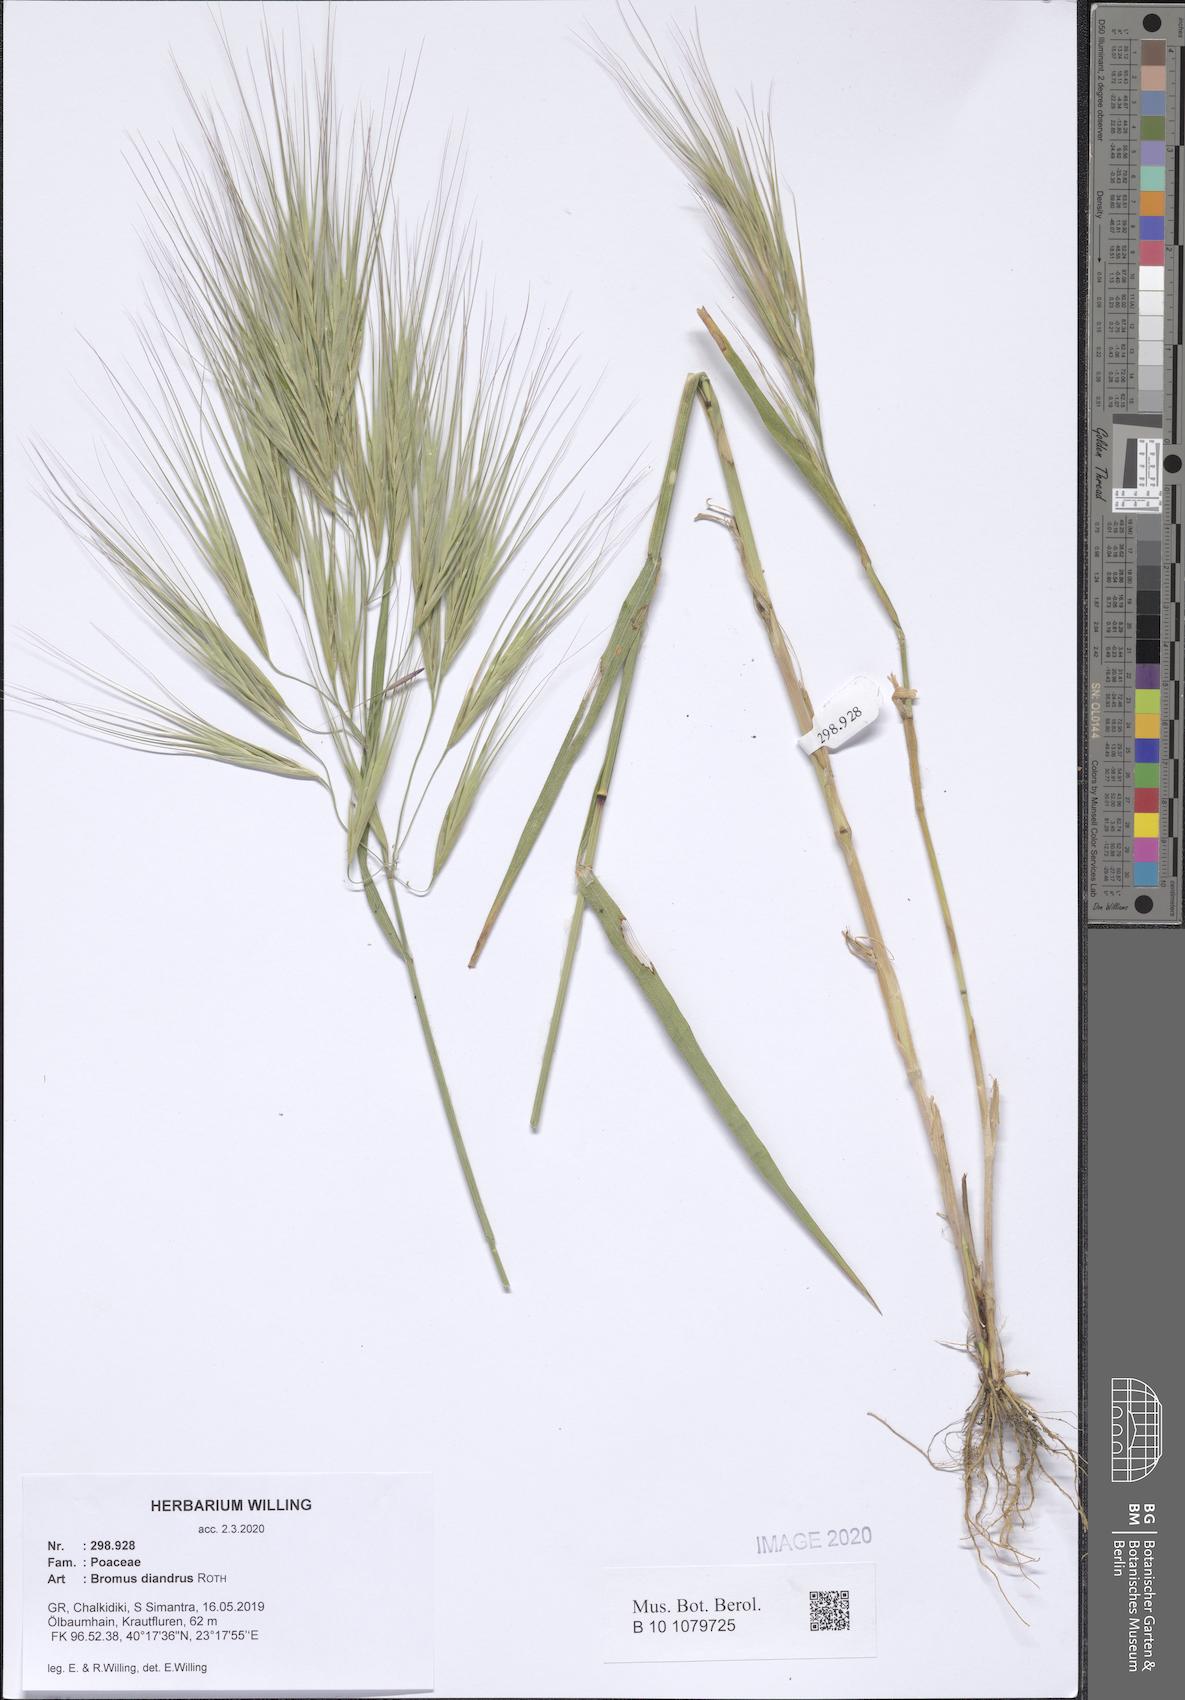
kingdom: Plantae
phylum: Tracheophyta
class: Liliopsida
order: Poales
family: Poaceae
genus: Bromus
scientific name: Bromus diandrus
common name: Ripgut brome
